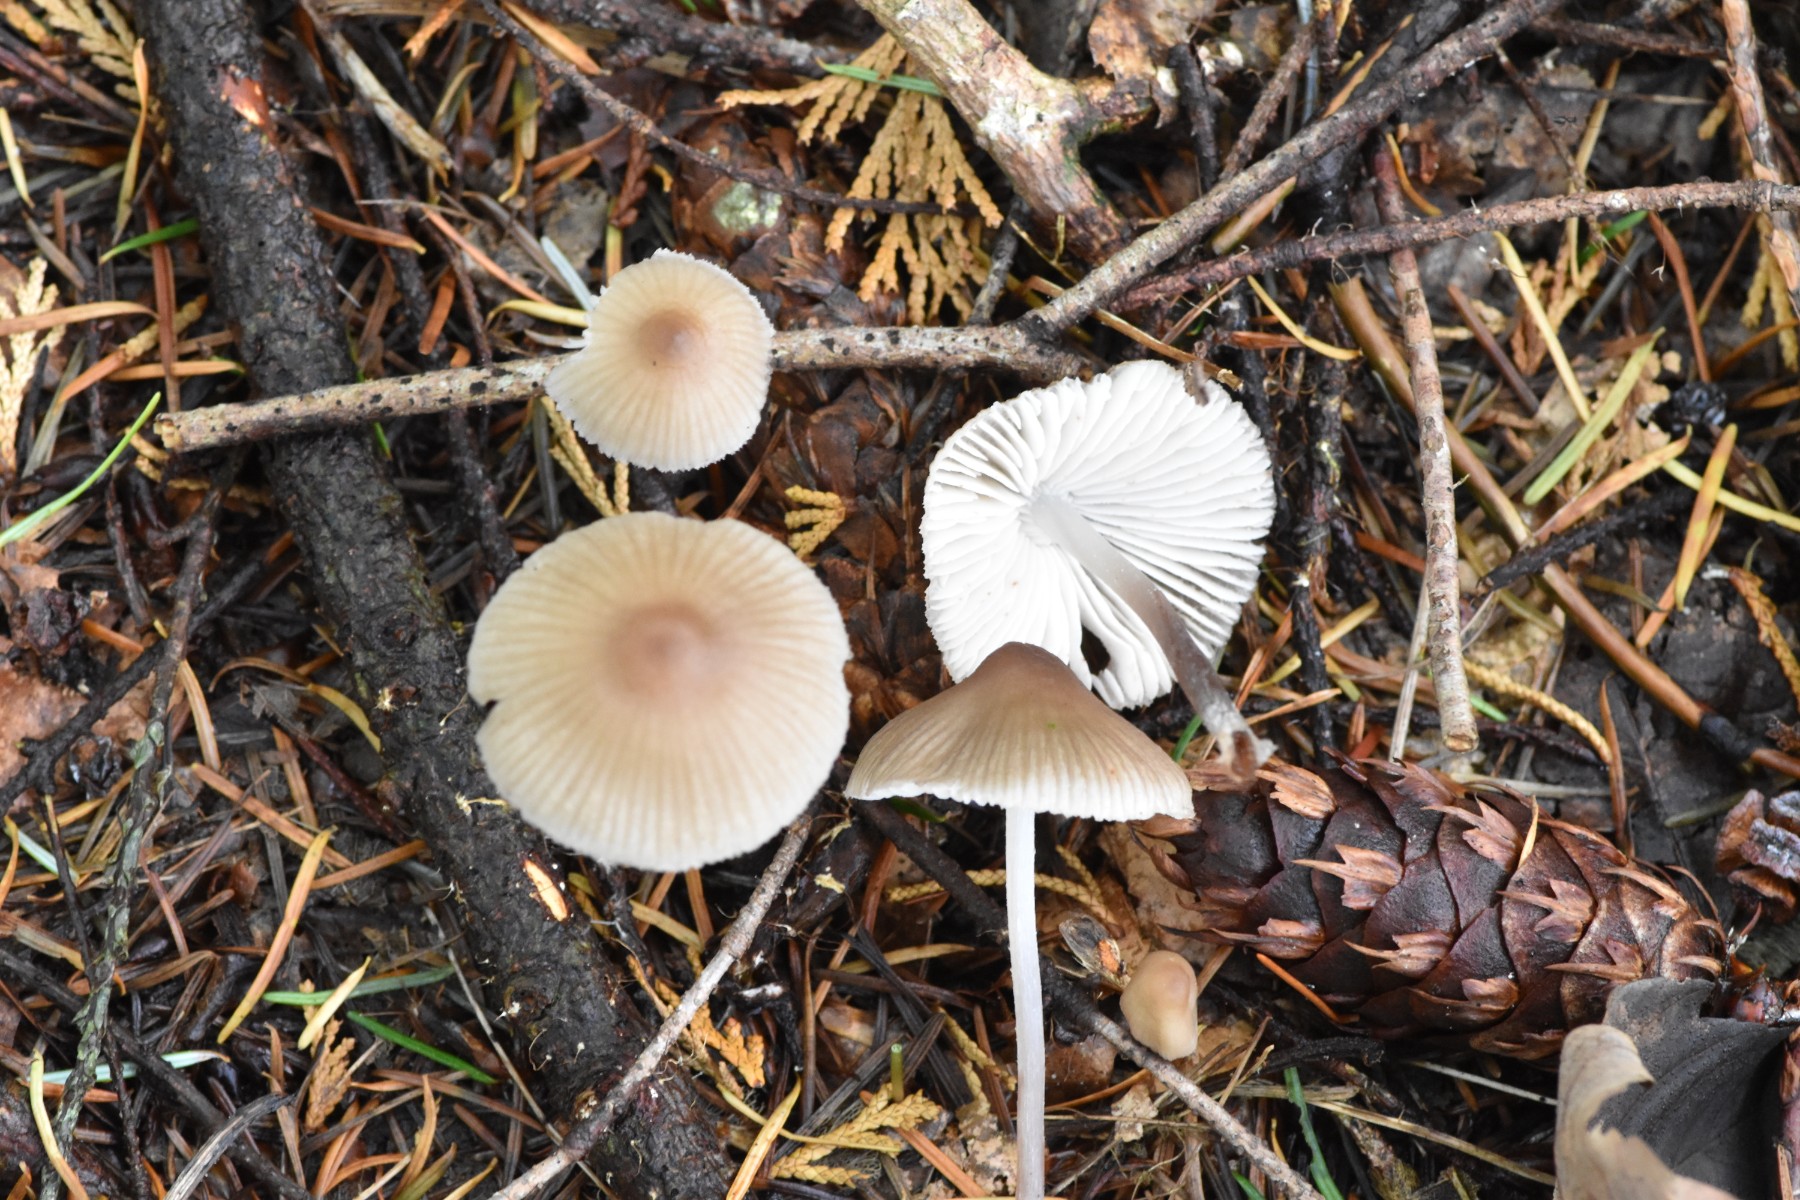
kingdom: Fungi
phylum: Basidiomycota
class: Agaricomycetes
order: Agaricales
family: Mycenaceae
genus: Mycena
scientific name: Mycena zephirus
